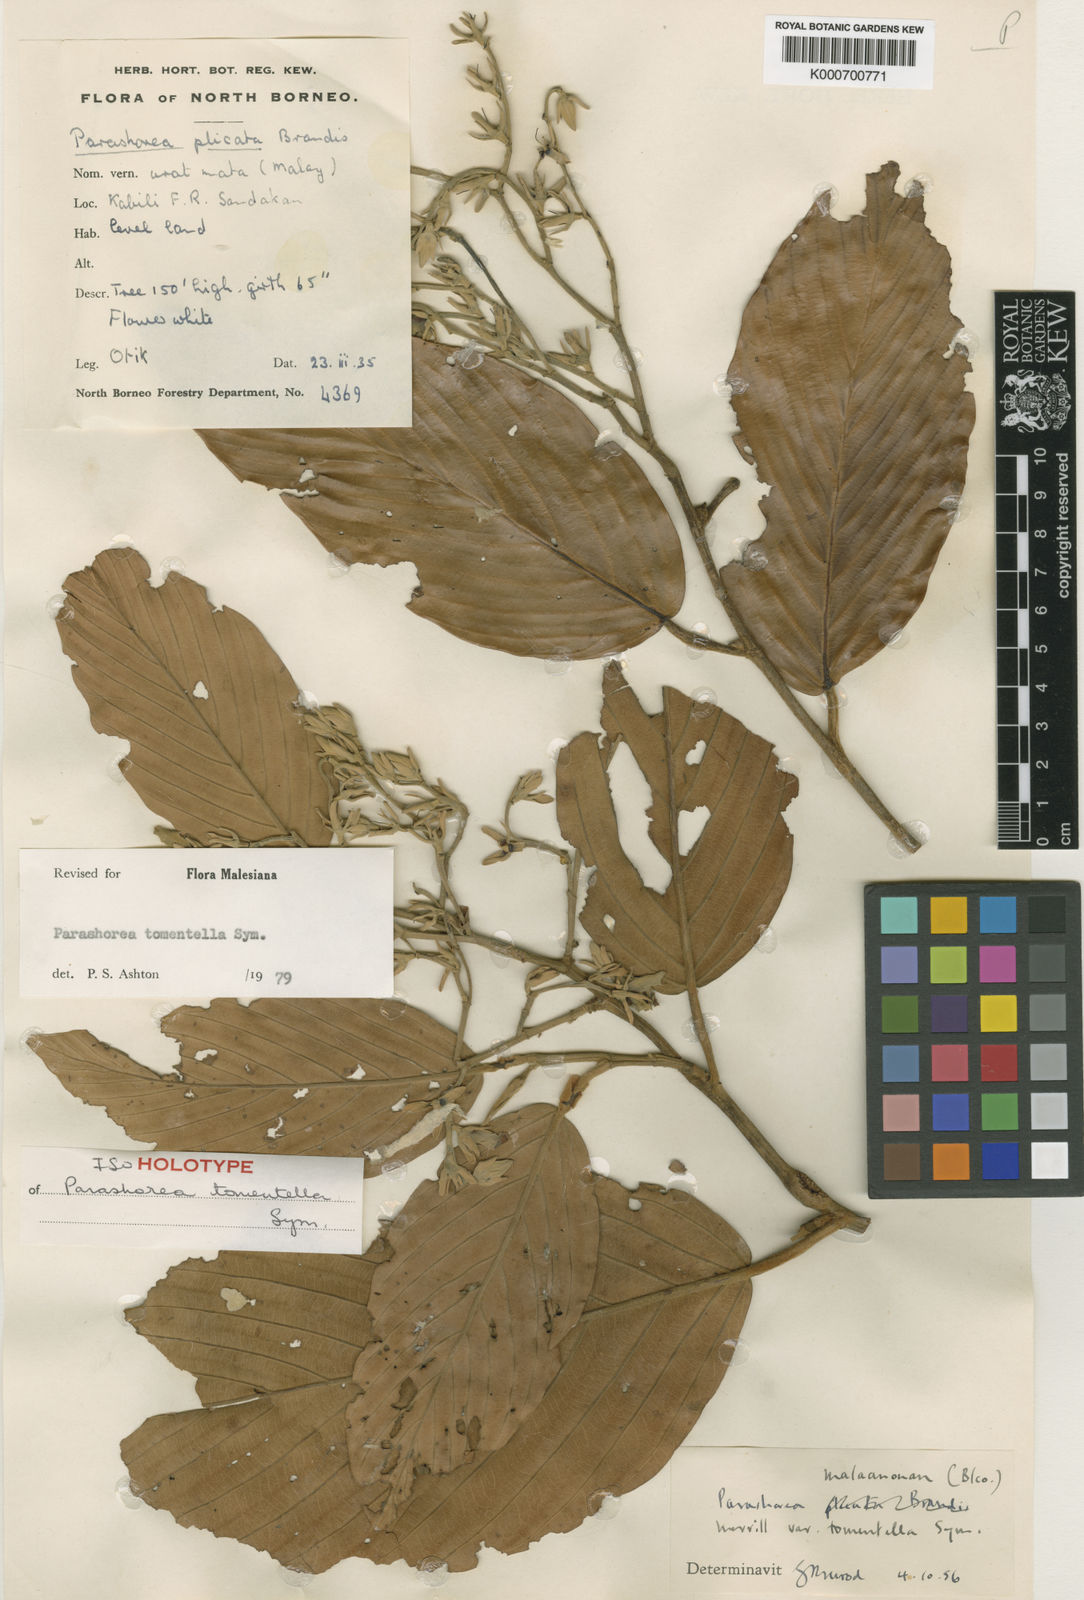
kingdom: Plantae
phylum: Tracheophyta
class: Magnoliopsida
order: Malvales
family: Dipterocarpaceae
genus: Parashorea
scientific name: Parashorea warburgii
